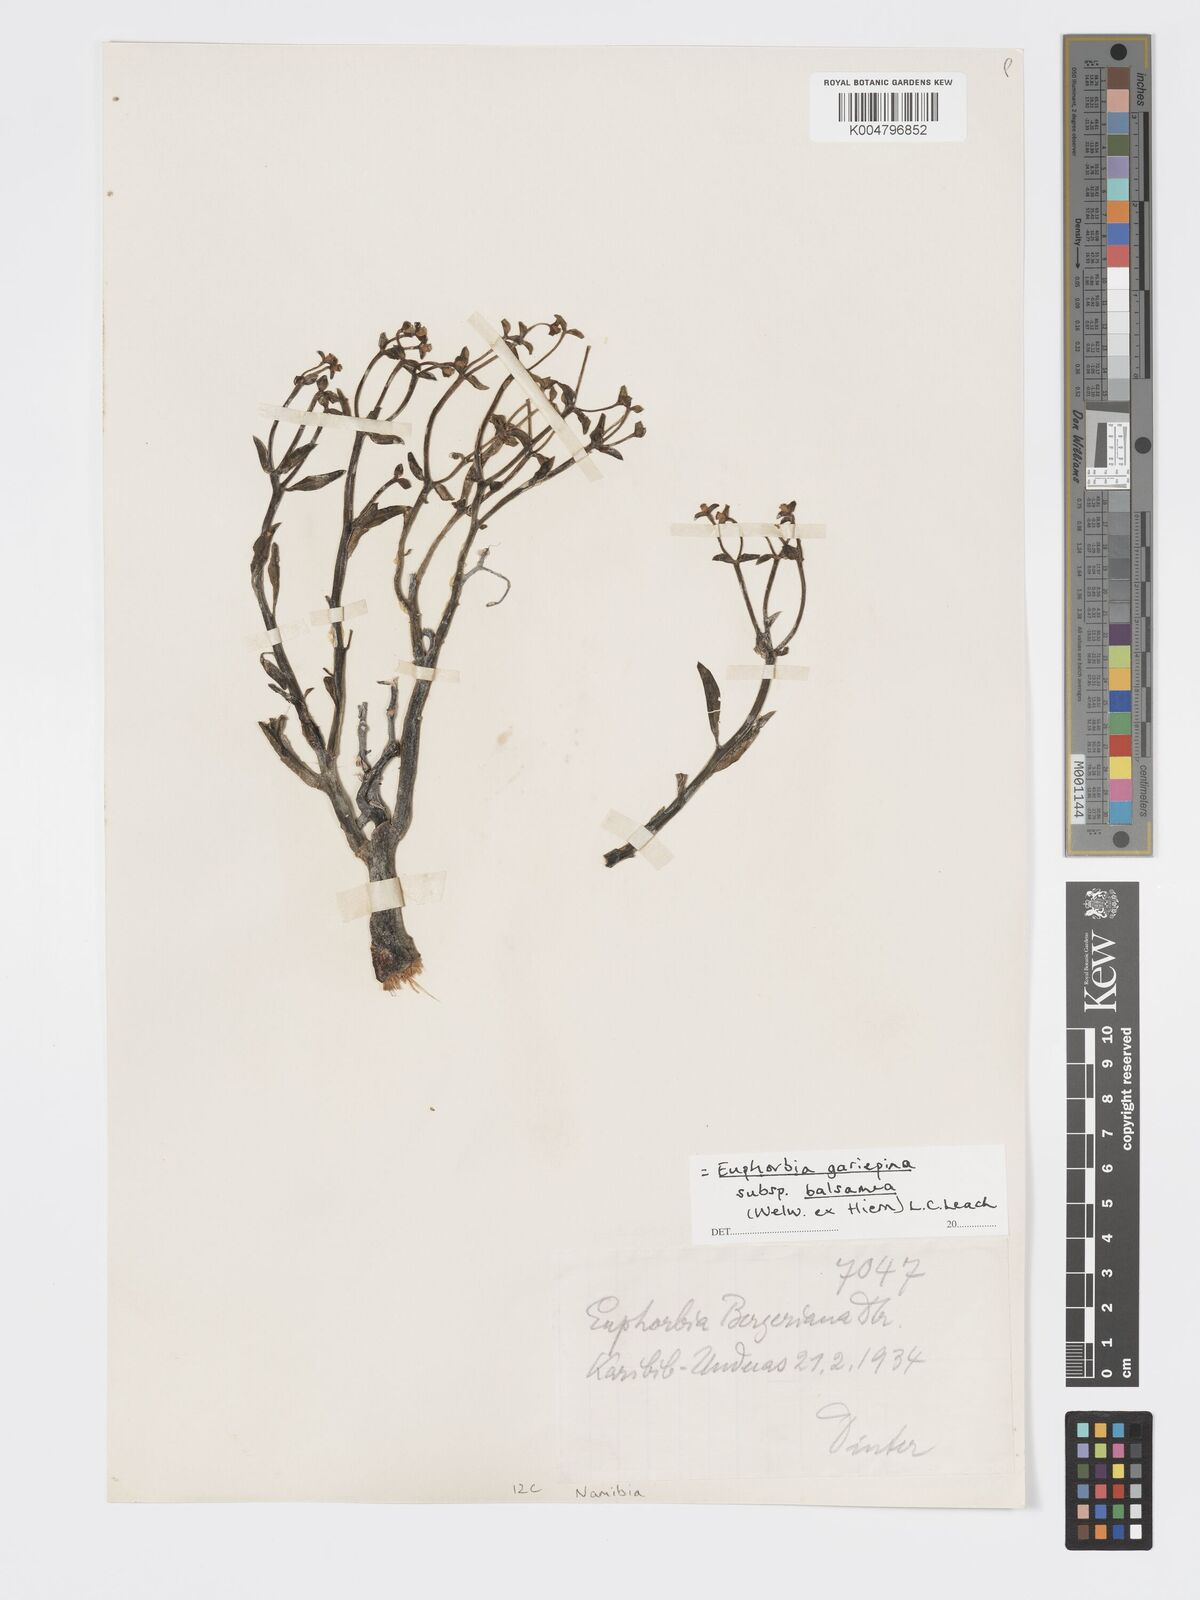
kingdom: Plantae
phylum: Tracheophyta
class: Magnoliopsida
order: Malpighiales
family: Euphorbiaceae
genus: Euphorbia
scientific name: Euphorbia gariepina
